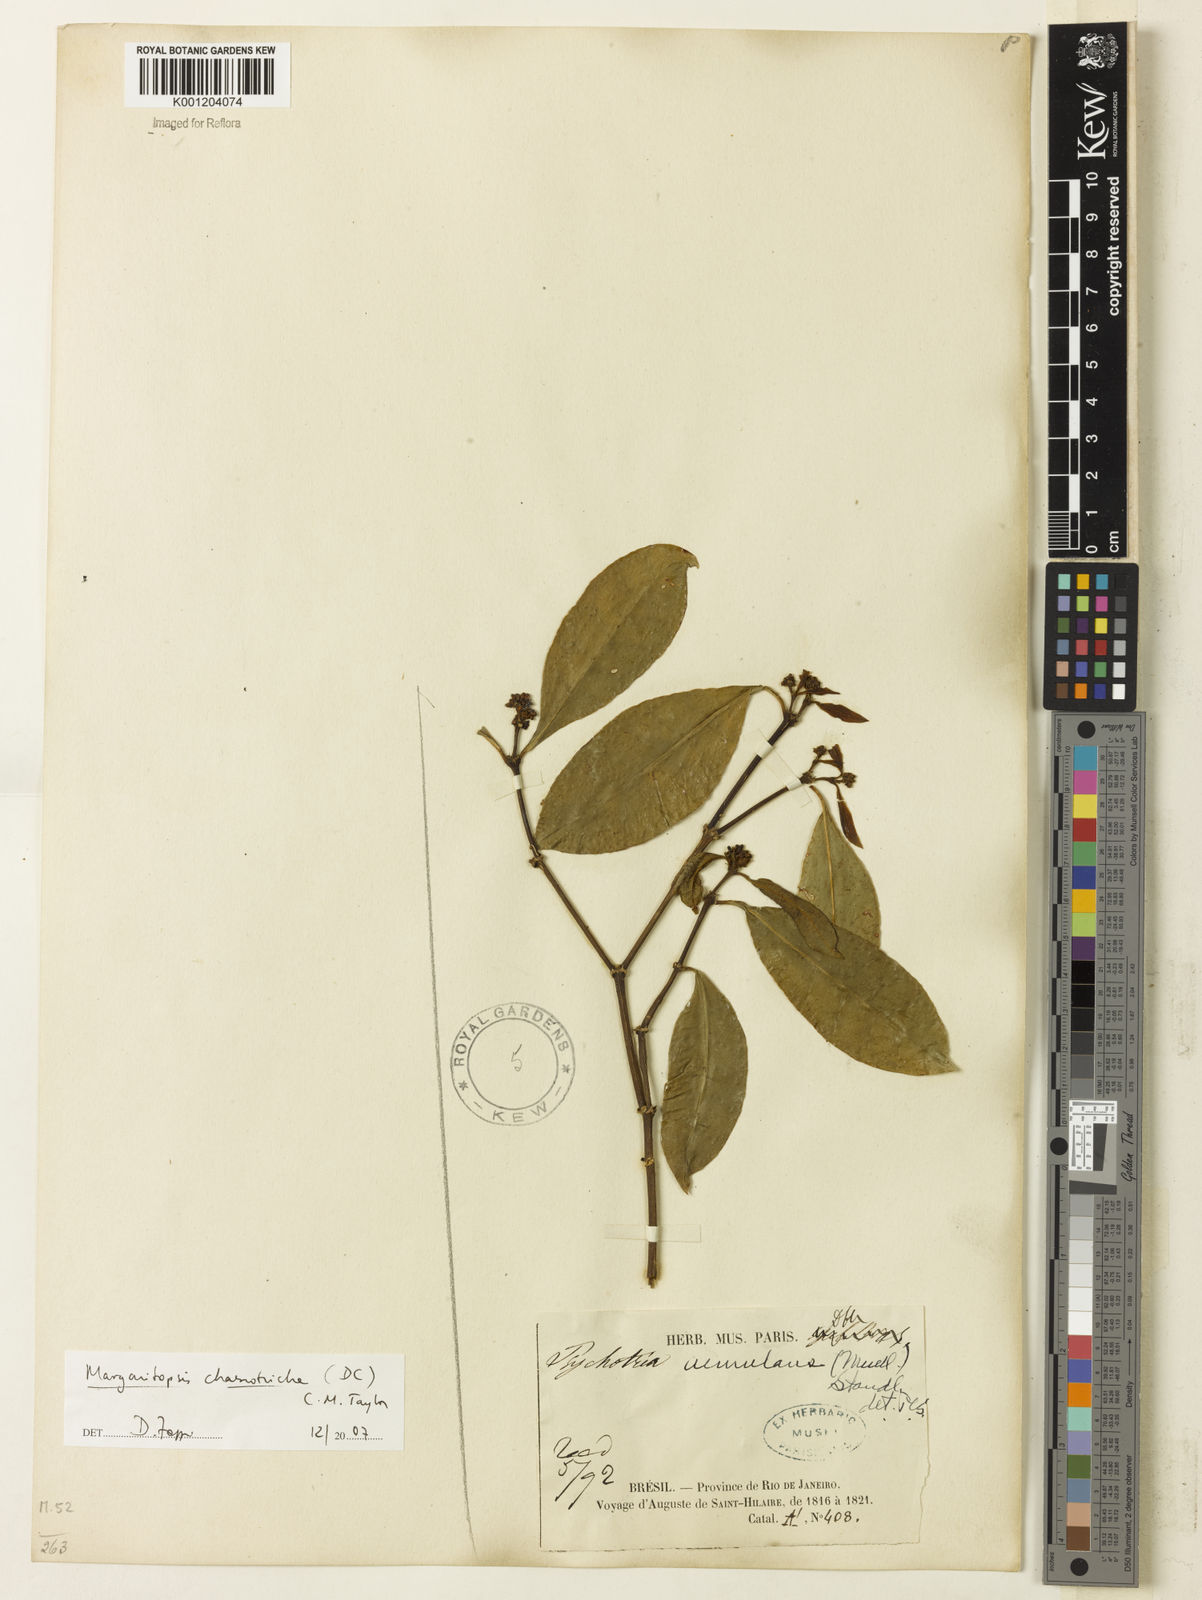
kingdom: Plantae
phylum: Tracheophyta
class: Magnoliopsida
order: Gentianales
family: Rubiaceae
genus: Eumachia
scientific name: Eumachia chaenotricha
